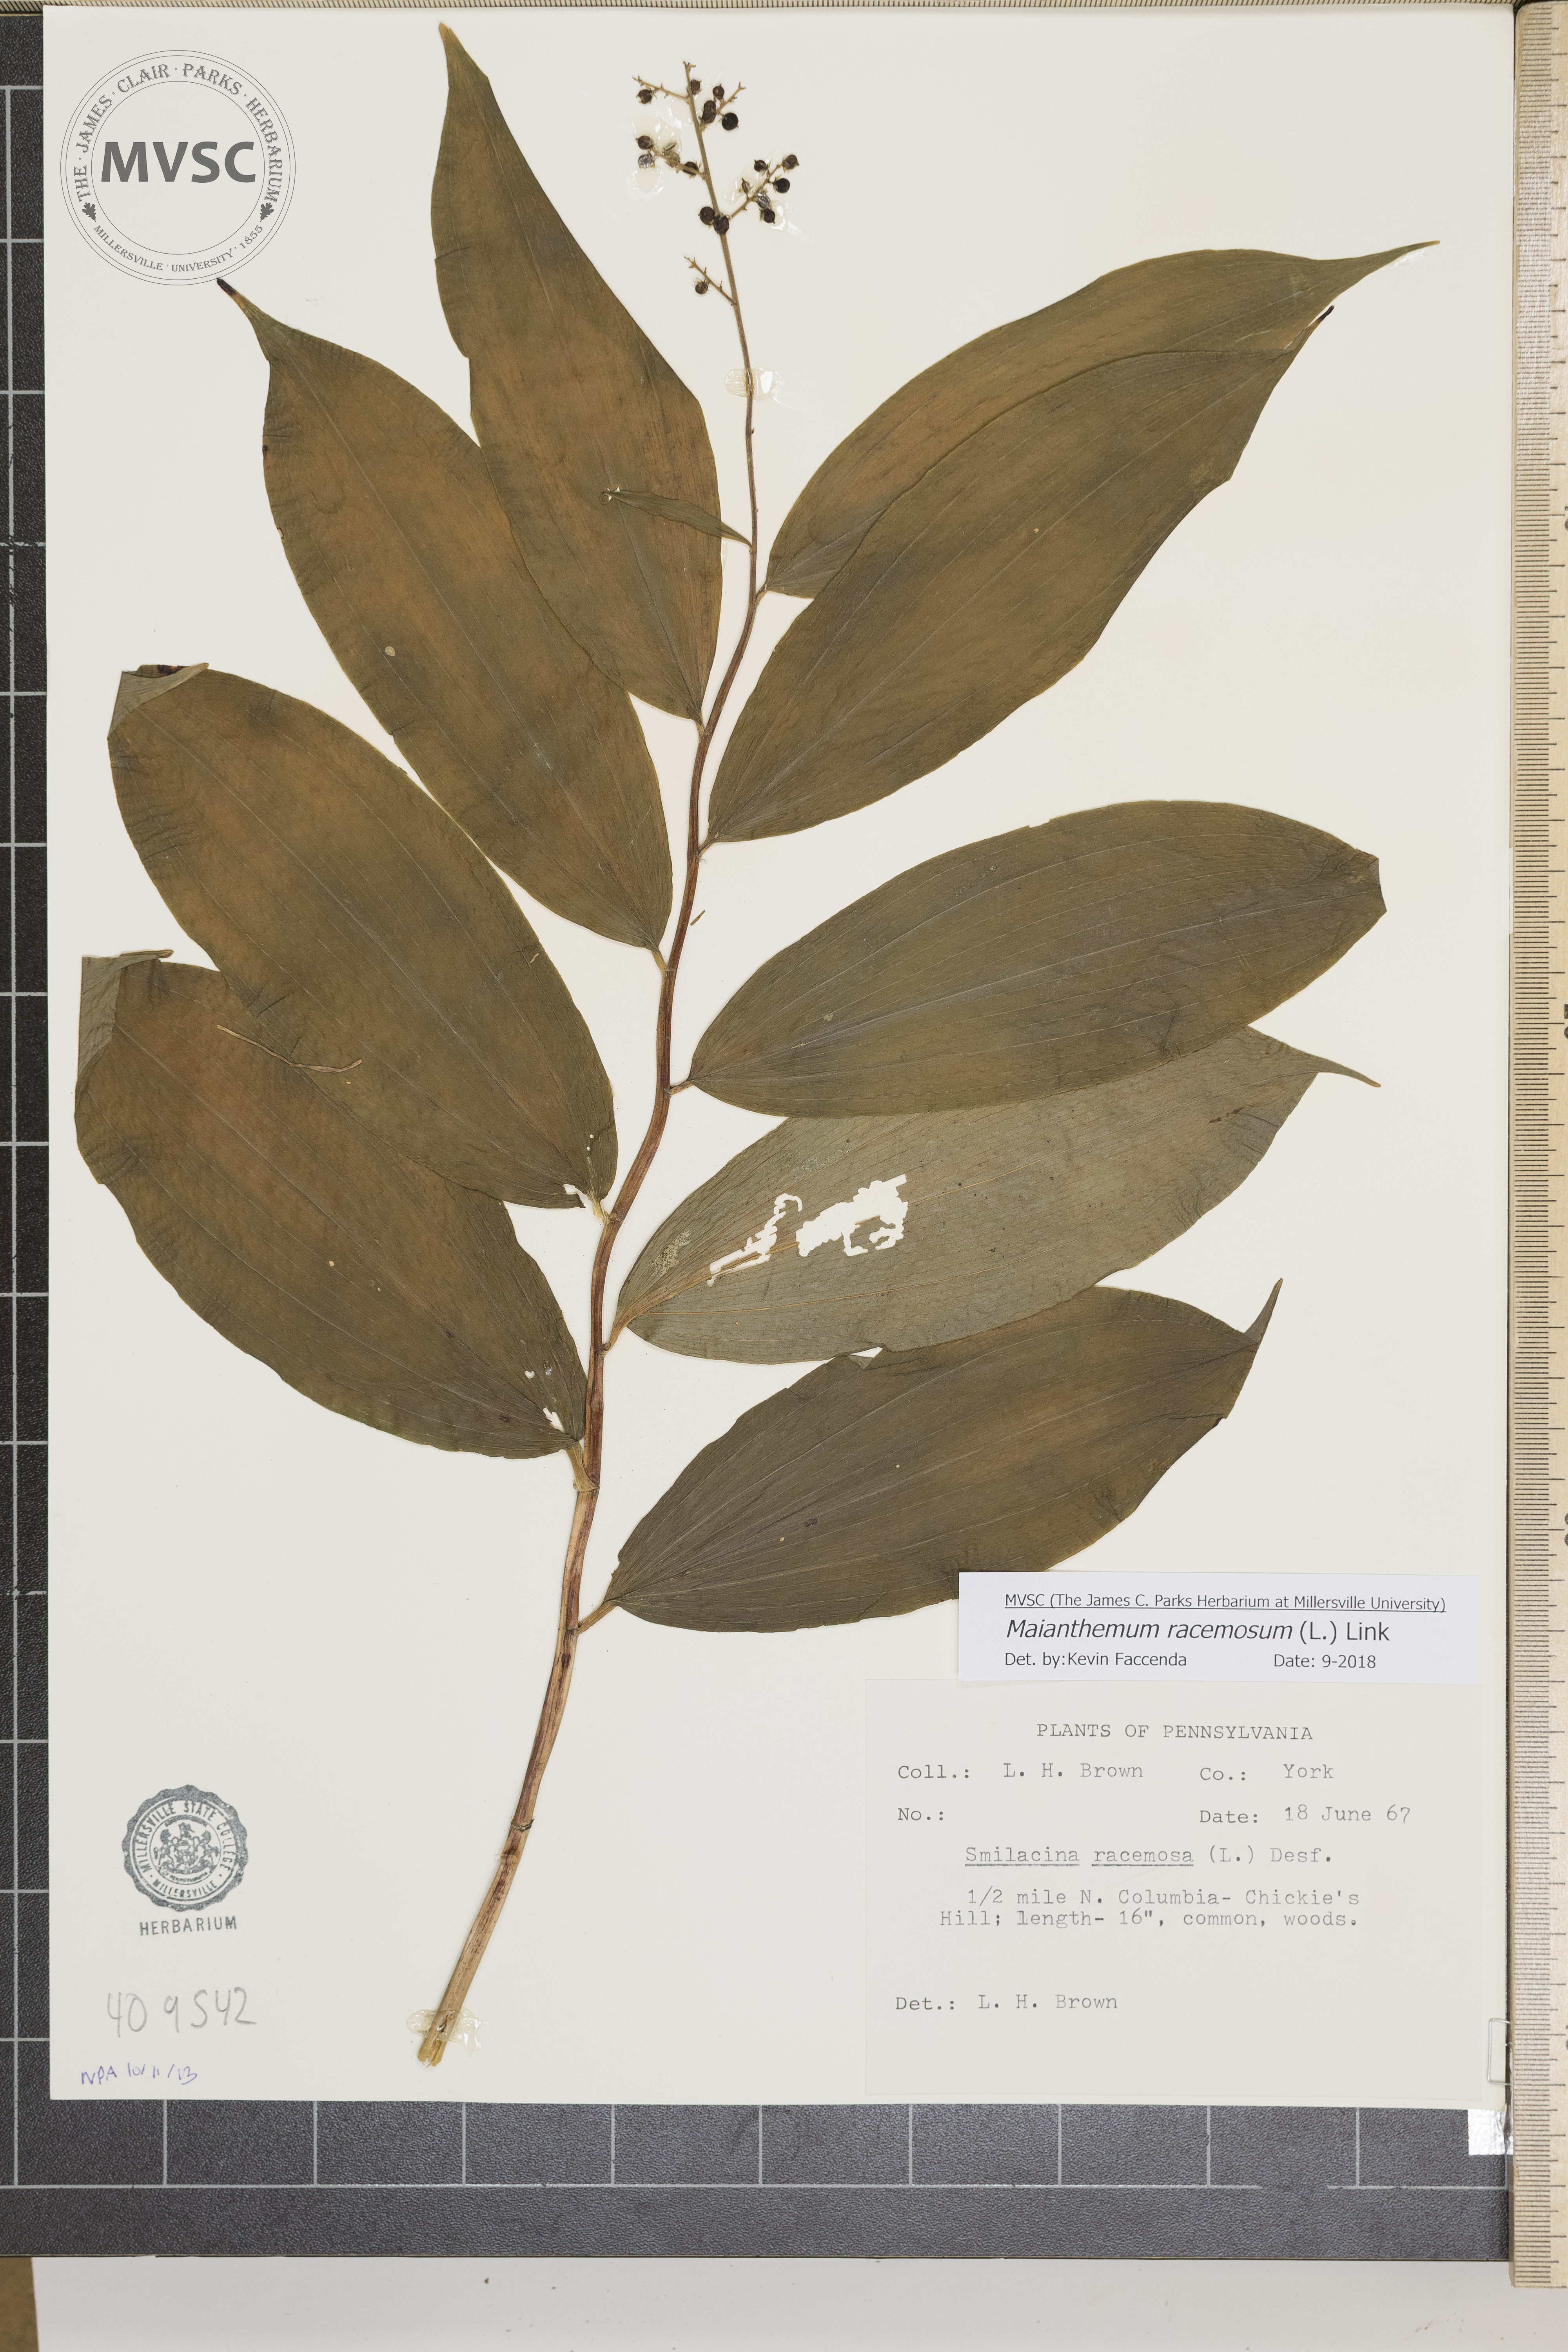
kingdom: Plantae
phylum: Tracheophyta
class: Liliopsida
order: Asparagales
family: Asparagaceae
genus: Maianthemum
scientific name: Maianthemum racemosum
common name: False spikenard
